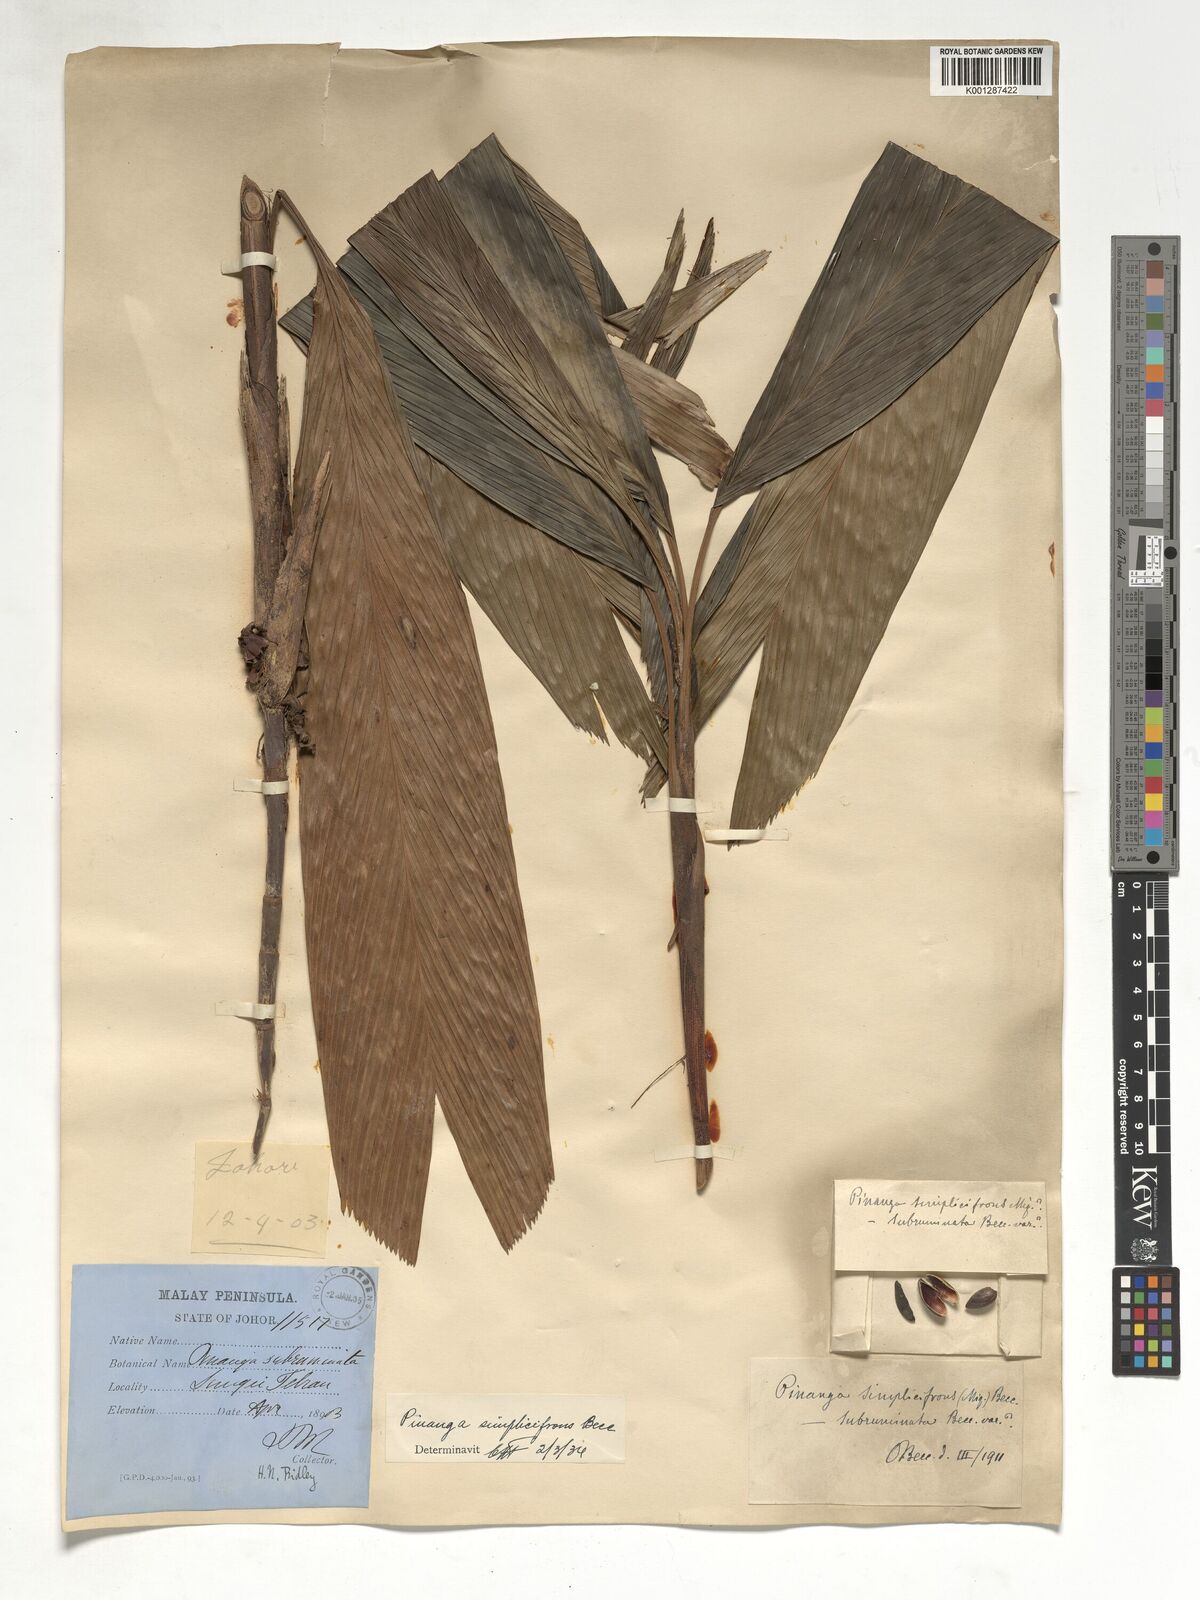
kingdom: Plantae
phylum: Tracheophyta
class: Liliopsida
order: Arecales
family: Arecaceae
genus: Pinanga
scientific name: Pinanga simplicifrons
